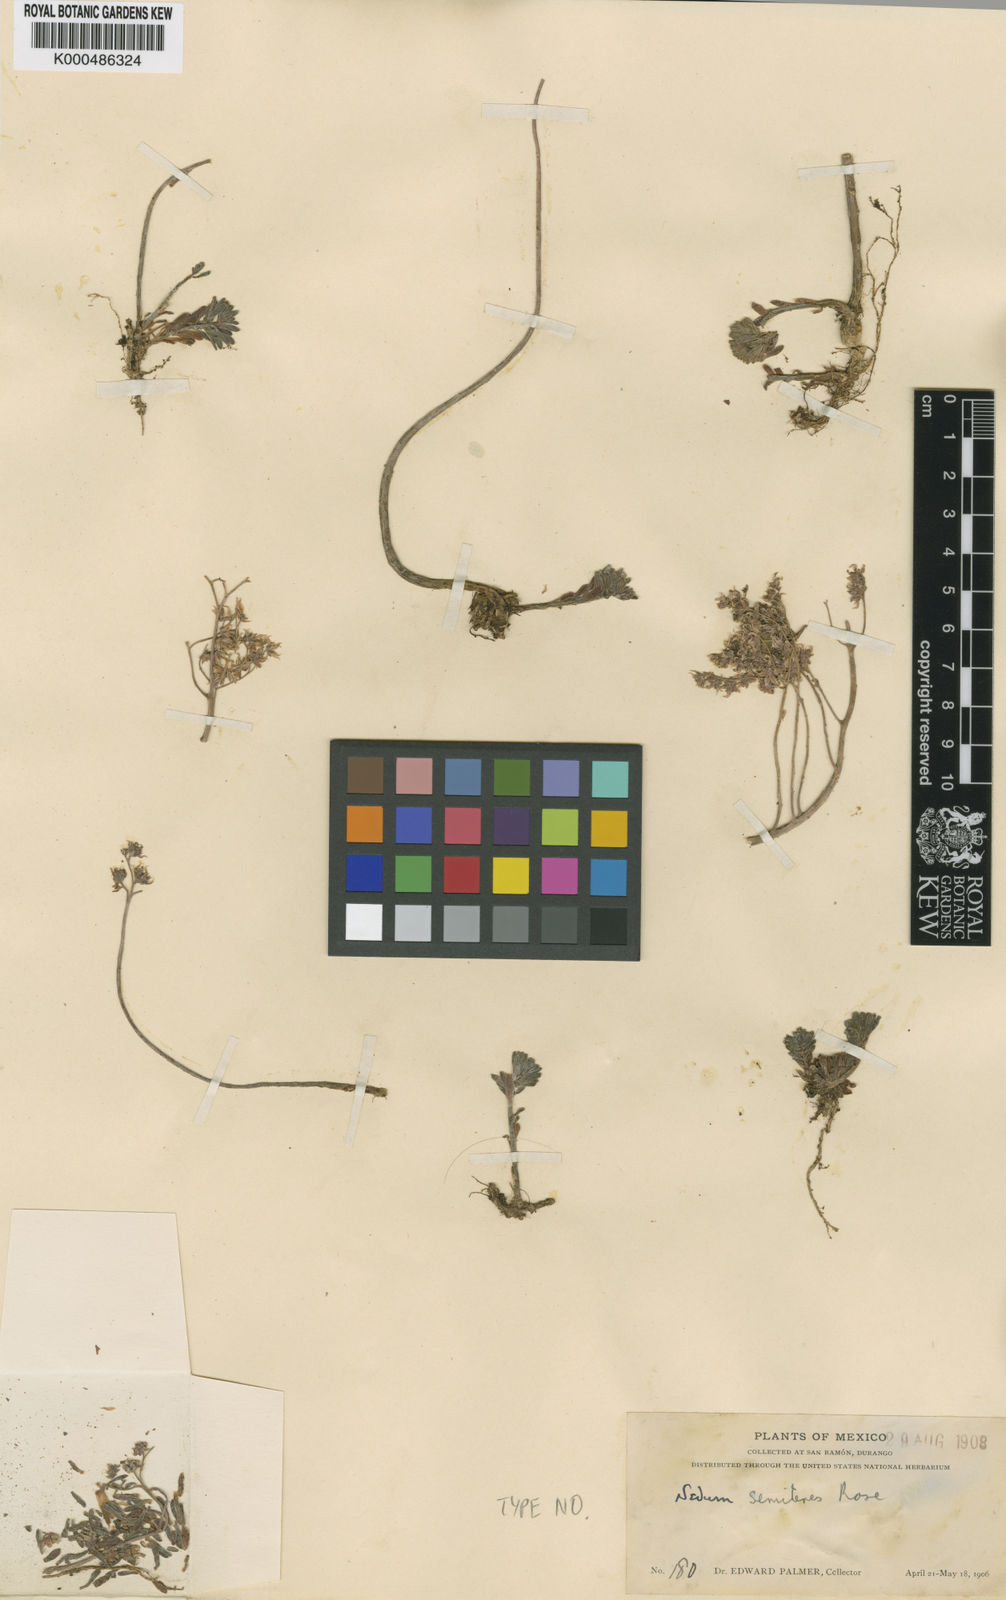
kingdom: Plantae
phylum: Tracheophyta
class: Magnoliopsida
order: Saxifragales
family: Crassulaceae
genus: Dudleya
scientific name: Dudleya semiteres
